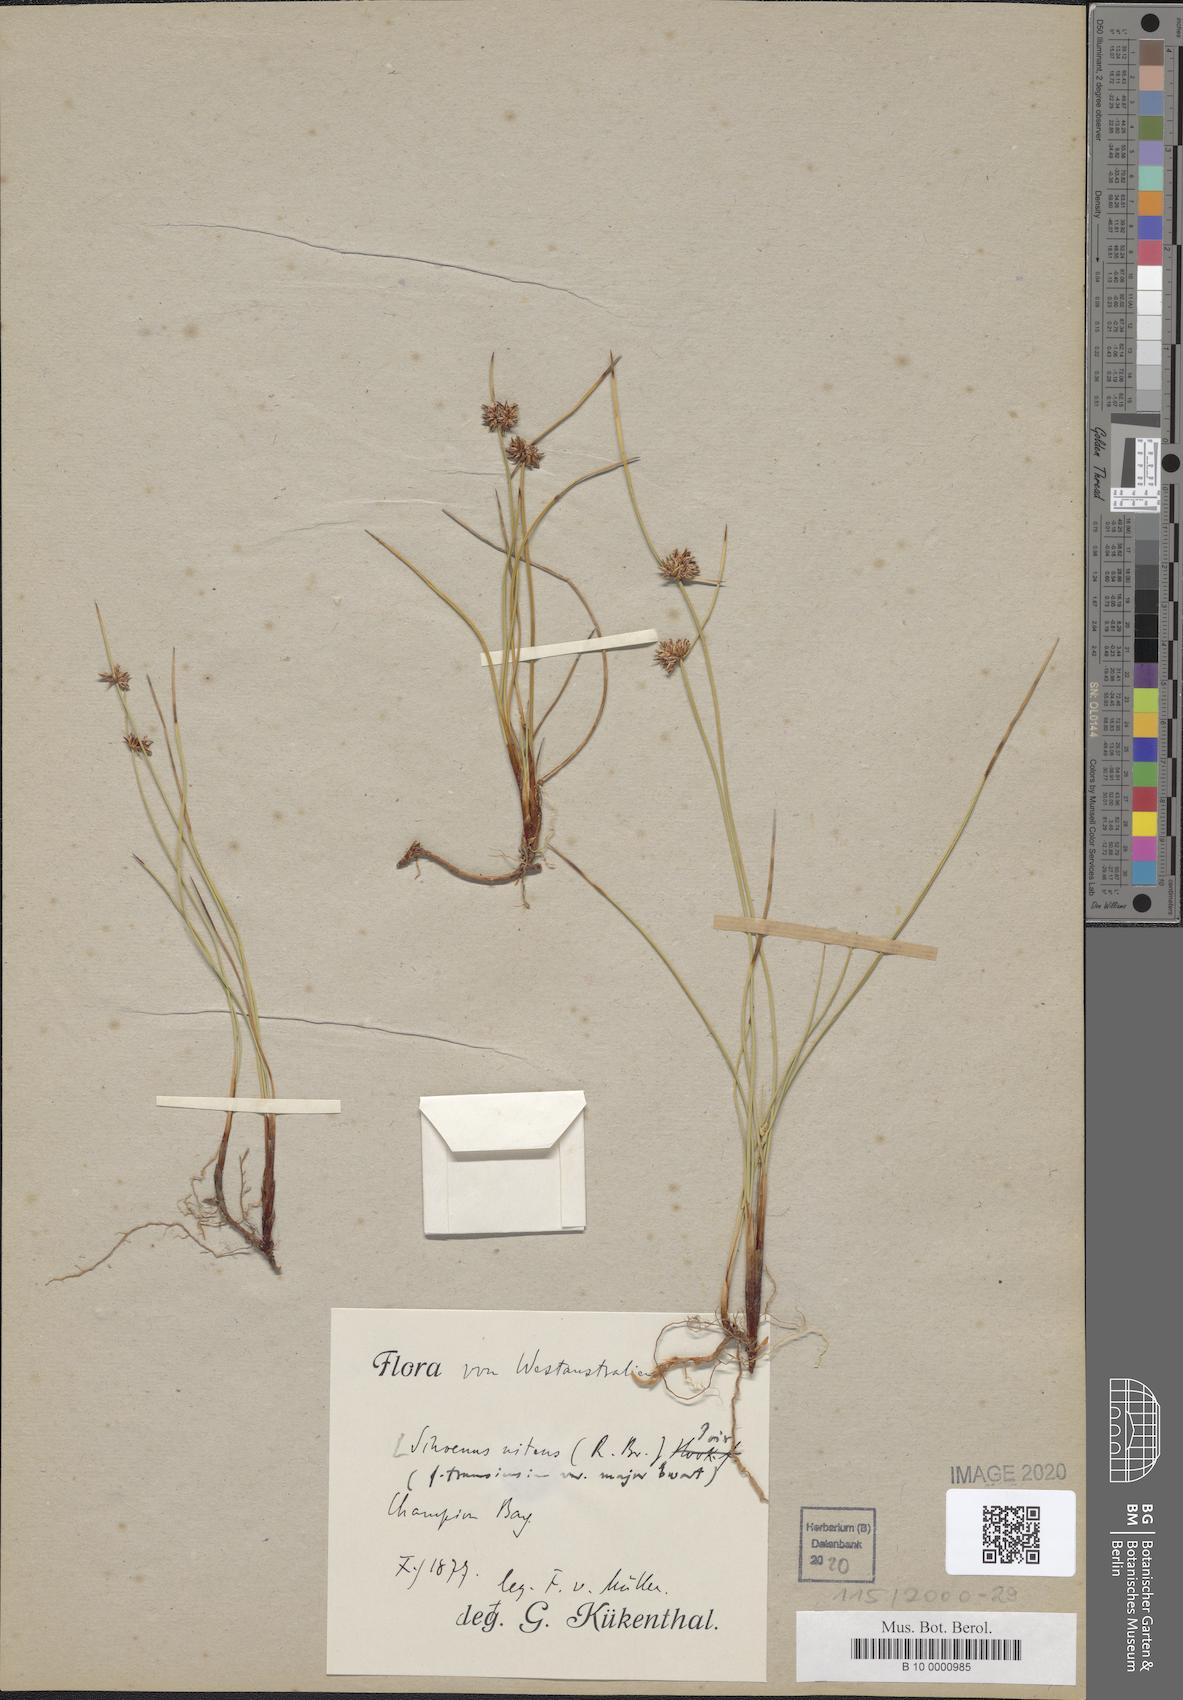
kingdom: Plantae
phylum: Tracheophyta
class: Liliopsida
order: Poales
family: Cyperaceae
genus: Schoenus
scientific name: Schoenus nitens
